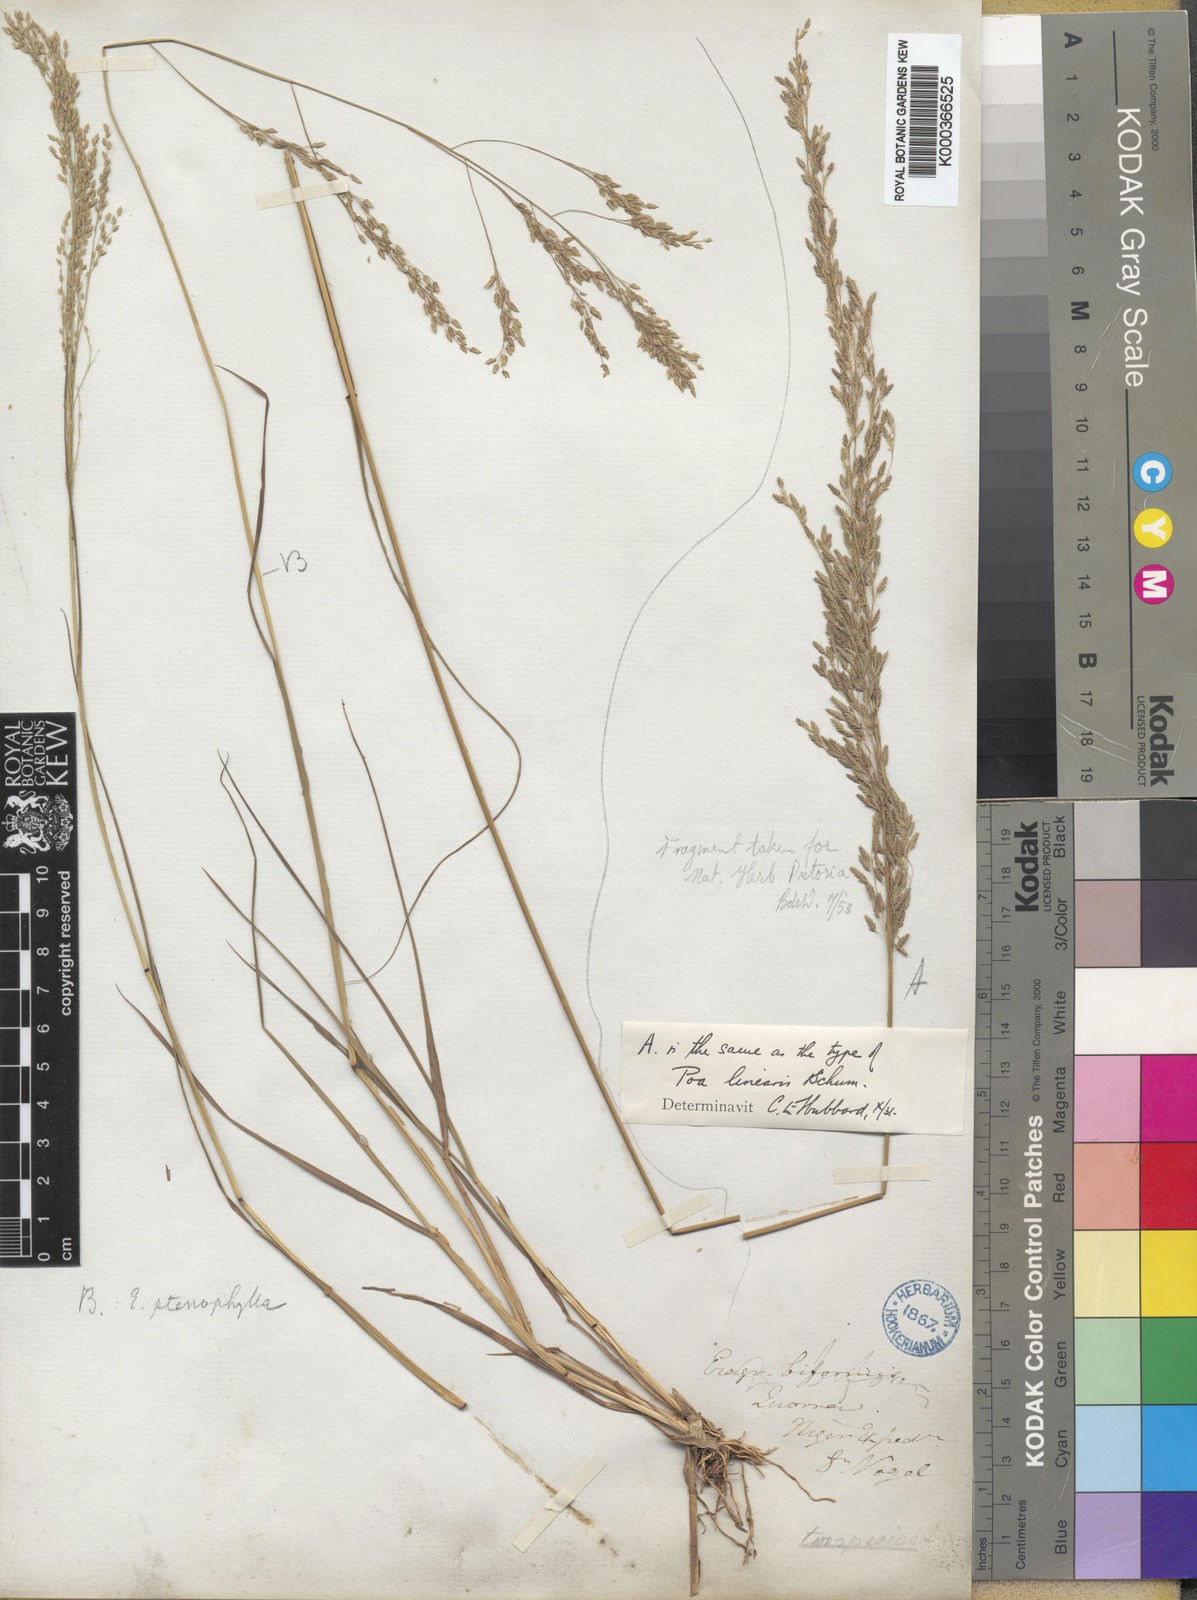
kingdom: Plantae
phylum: Tracheophyta
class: Liliopsida
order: Poales
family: Poaceae
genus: Eragrostis
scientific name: Eragrostis prolifera
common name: Dominican lovegrass
